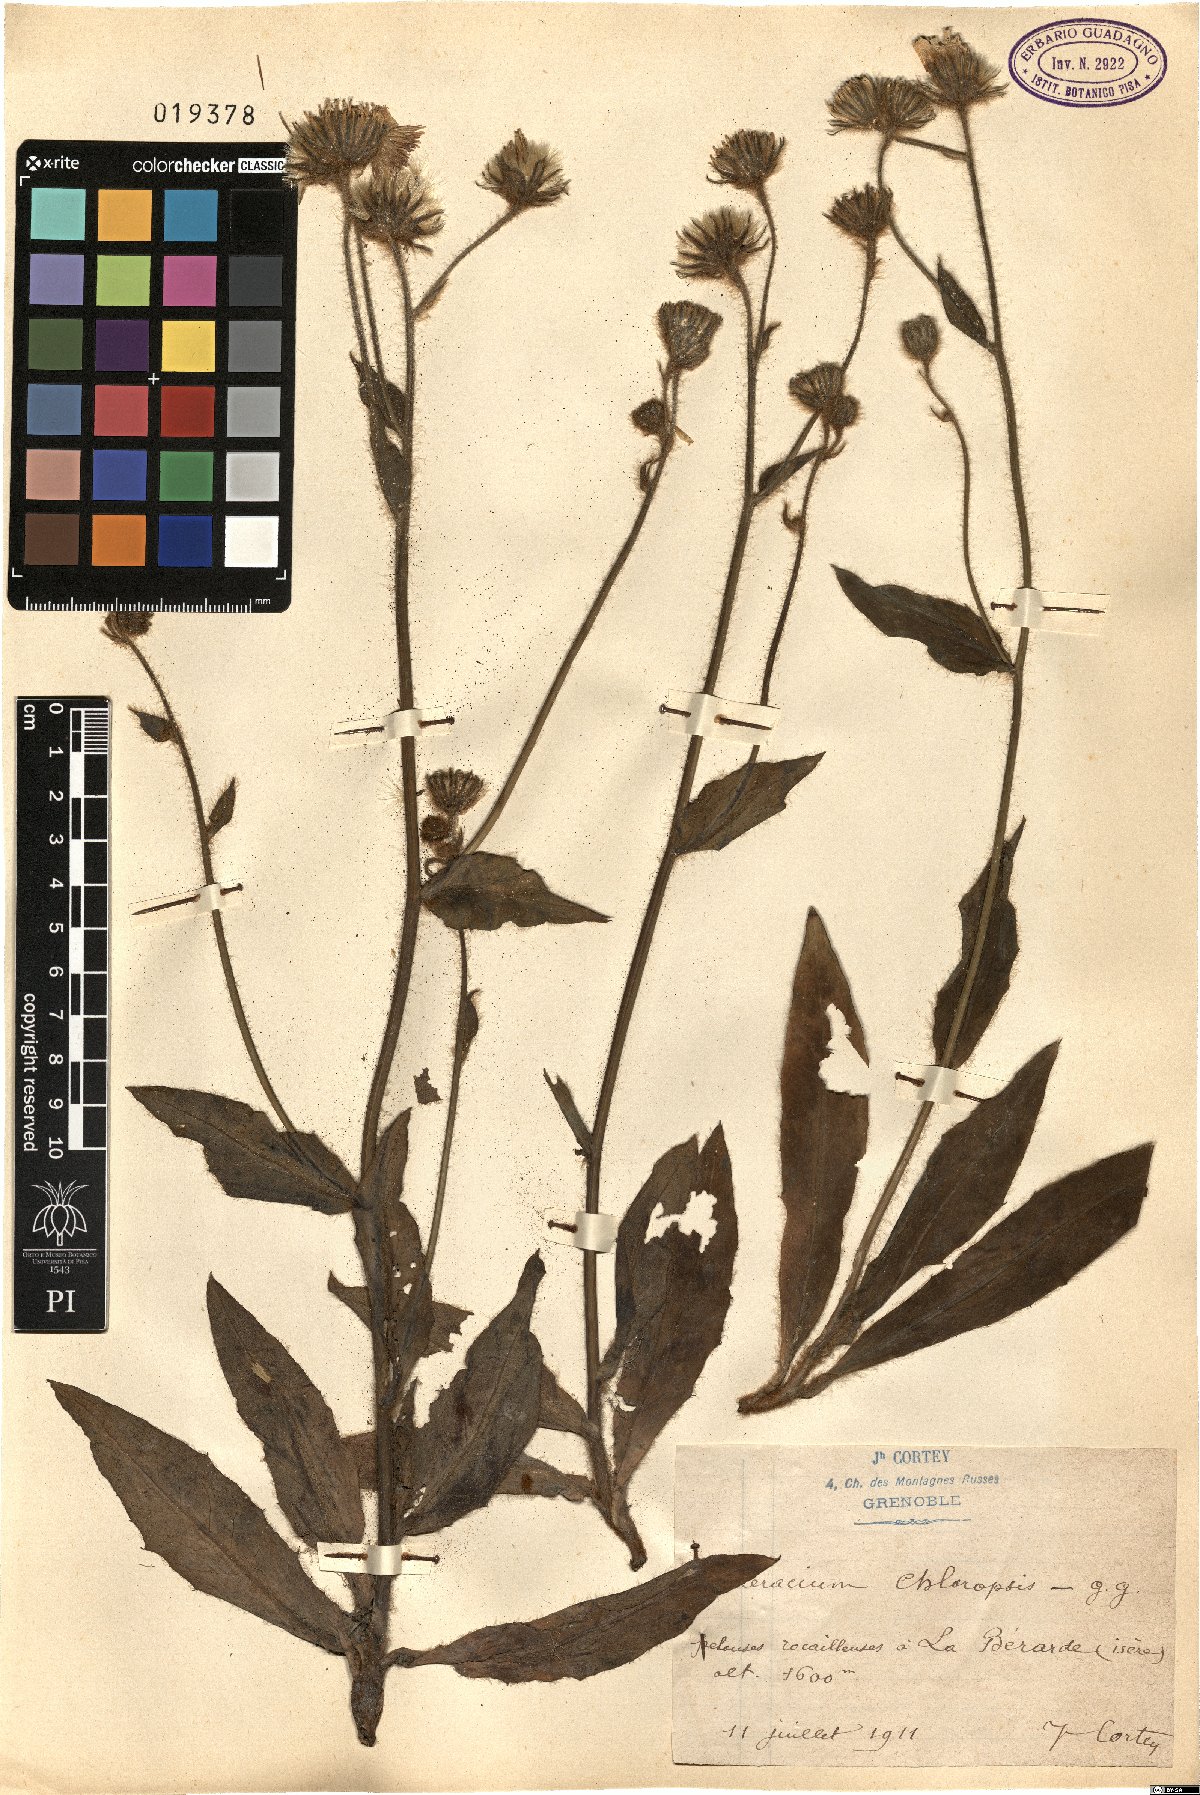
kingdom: Plantae
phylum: Tracheophyta
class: Magnoliopsida
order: Asterales
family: Asteraceae
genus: Hieracium
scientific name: Hieracium chloropsis
